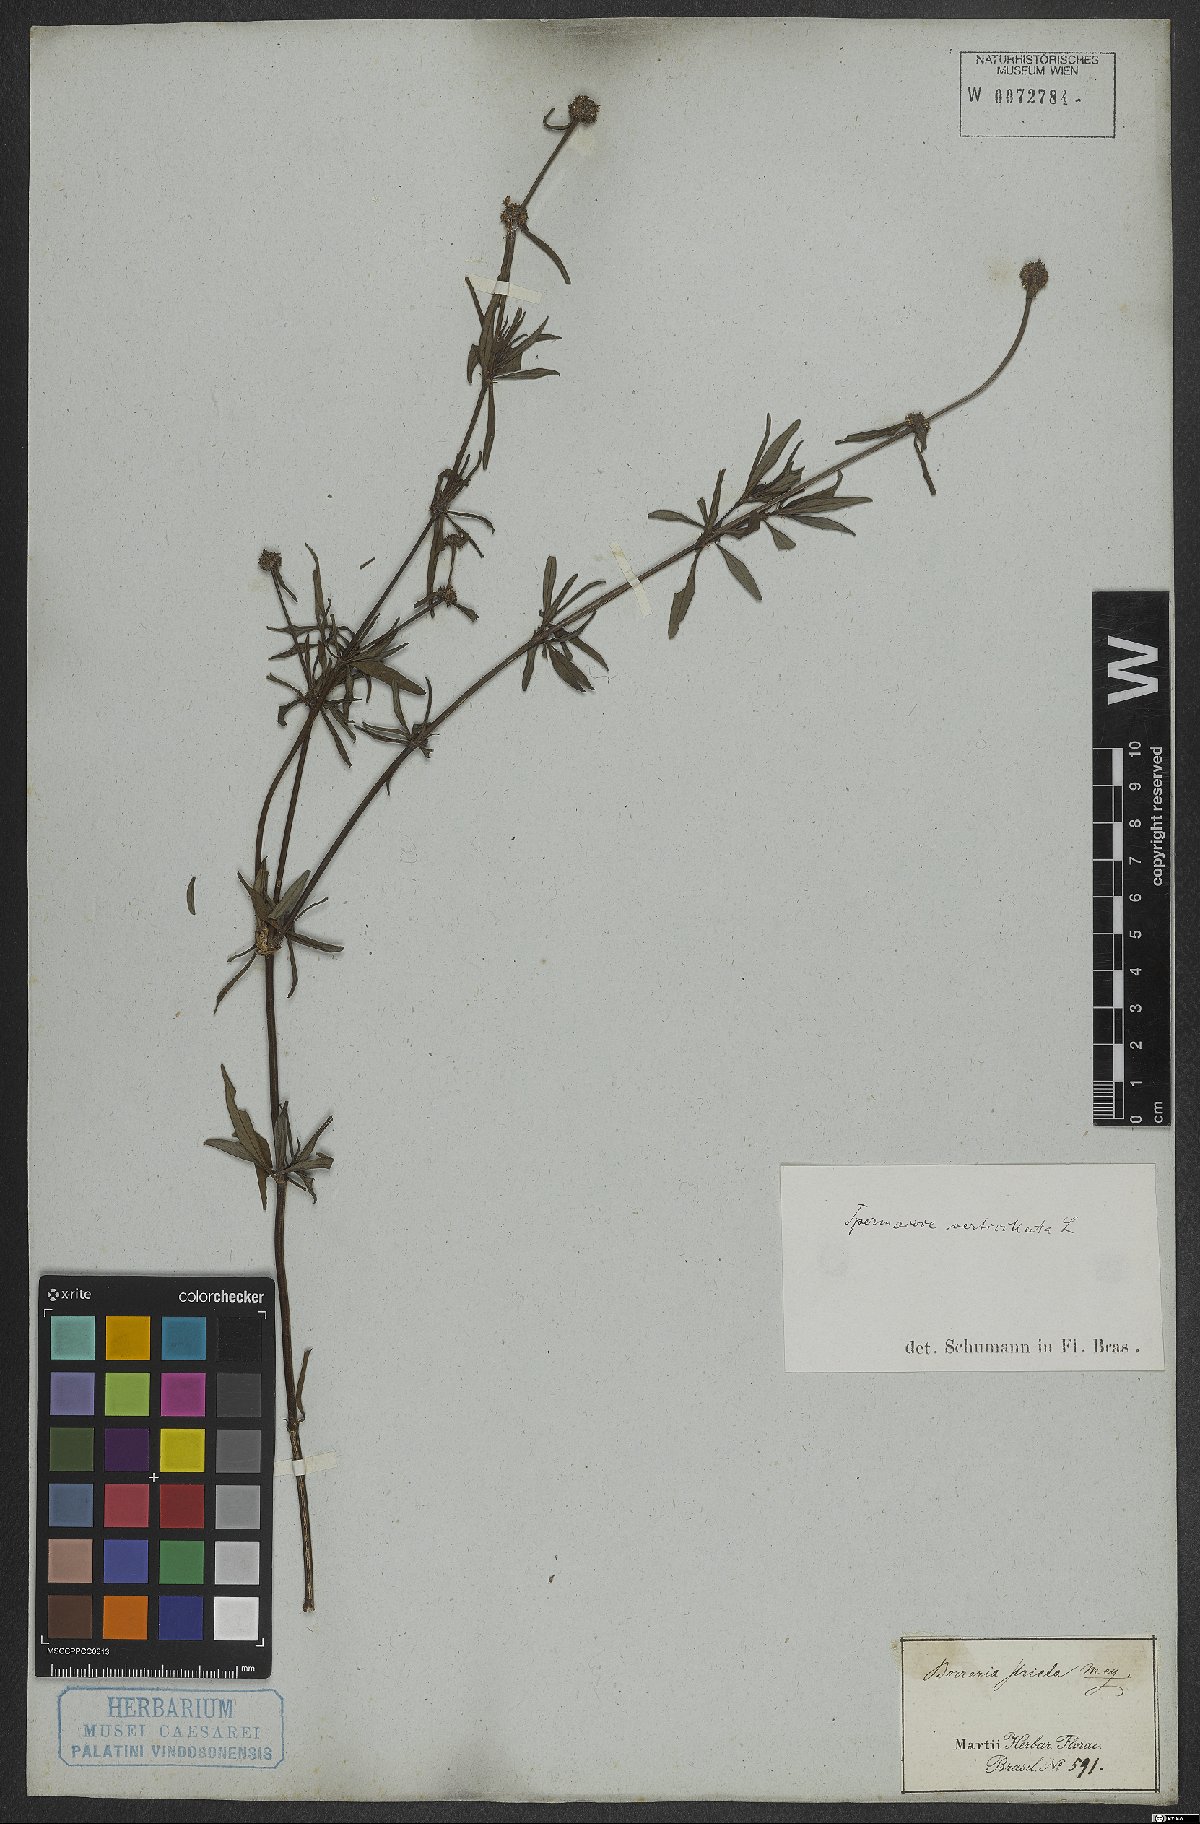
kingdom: Plantae
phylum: Tracheophyta
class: Magnoliopsida
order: Gentianales
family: Rubiaceae
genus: Spermacoce
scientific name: Spermacoce verticillata
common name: Shrubby false buttonweed
